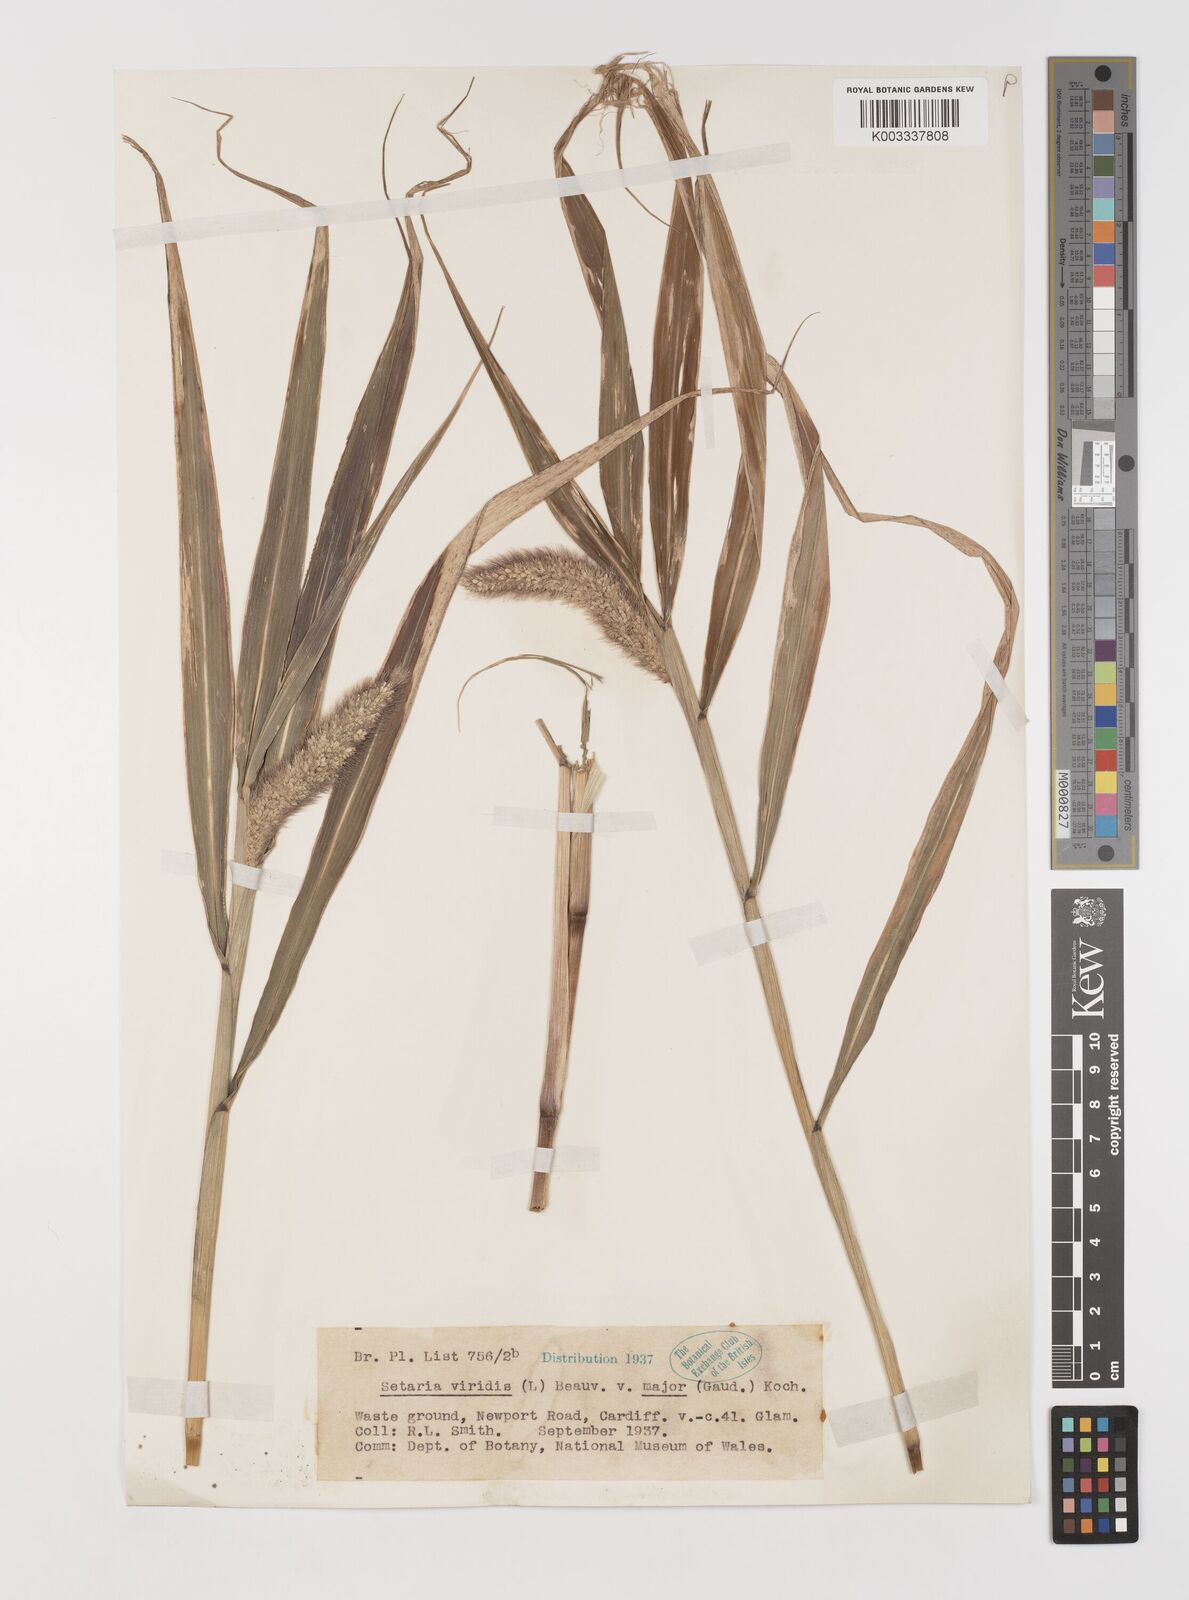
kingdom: Plantae
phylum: Tracheophyta
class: Liliopsida
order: Poales
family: Poaceae
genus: Setaria
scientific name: Setaria viridis
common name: Green bristlegrass
